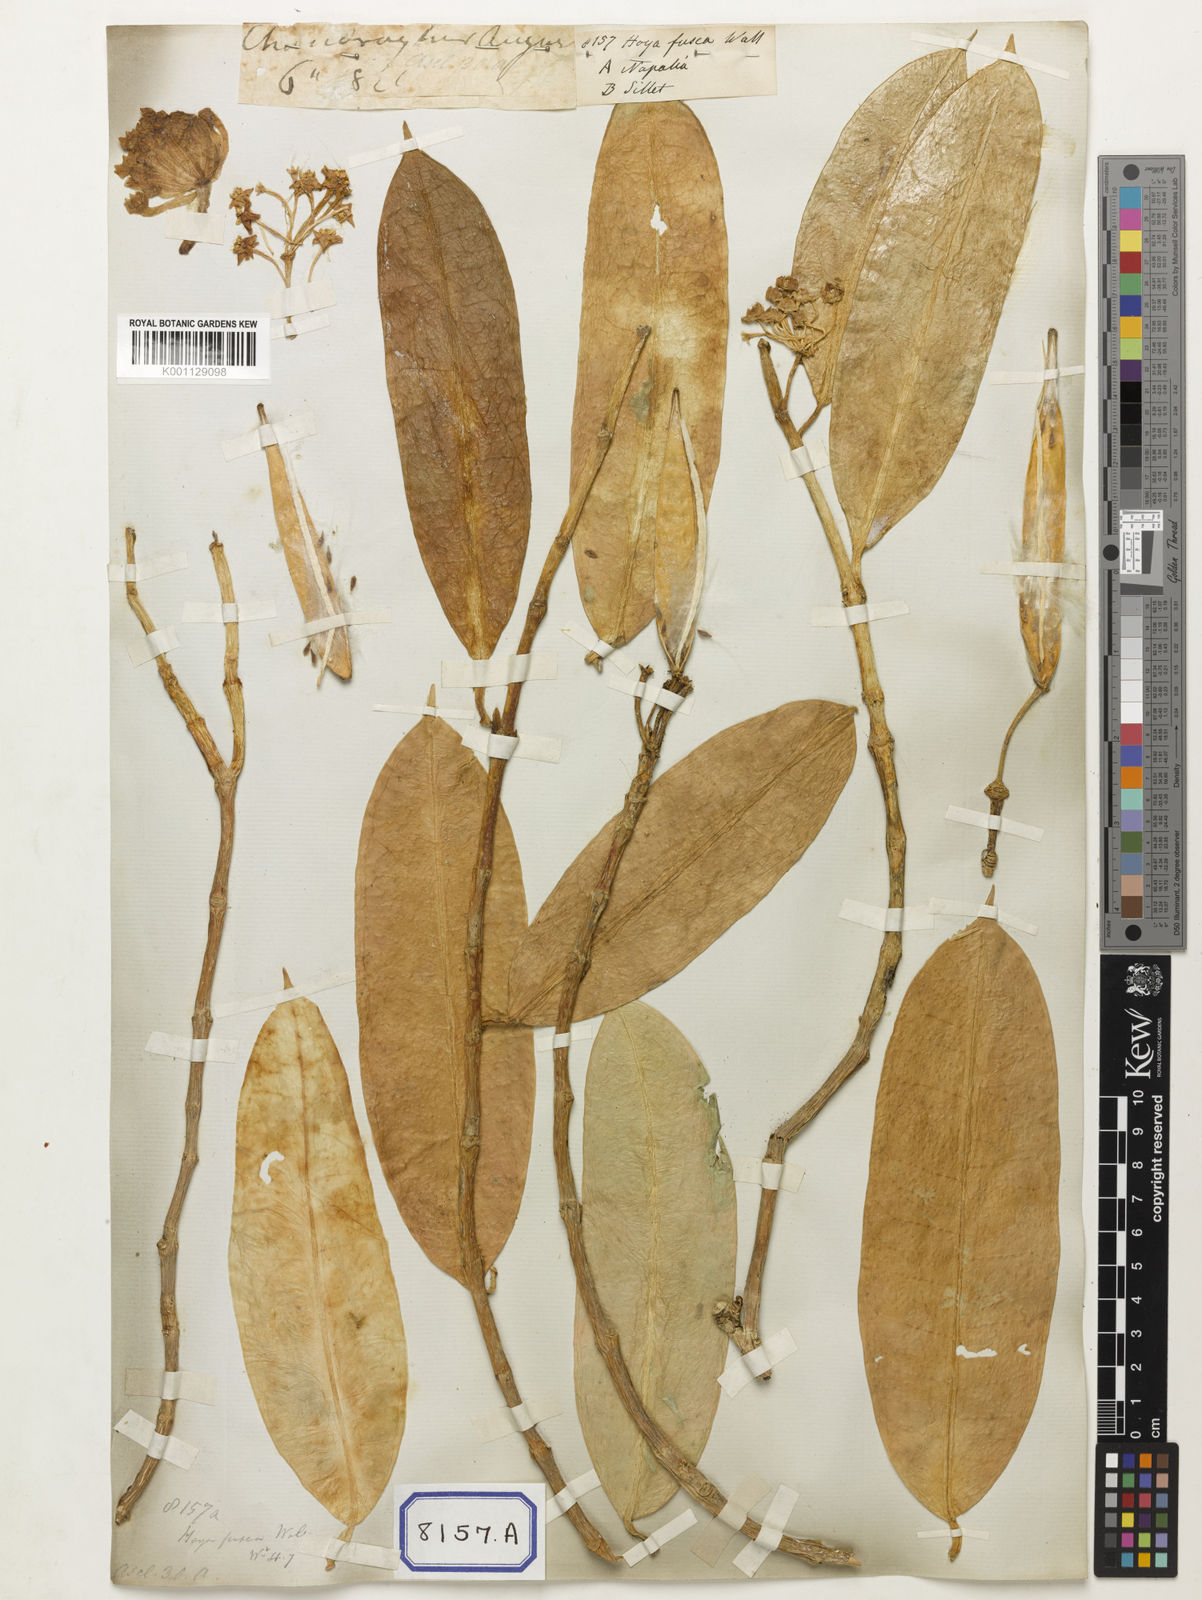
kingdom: Plantae
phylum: Tracheophyta
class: Magnoliopsida
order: Gentianales
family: Apocynaceae
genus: Hoya
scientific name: Hoya fusca
